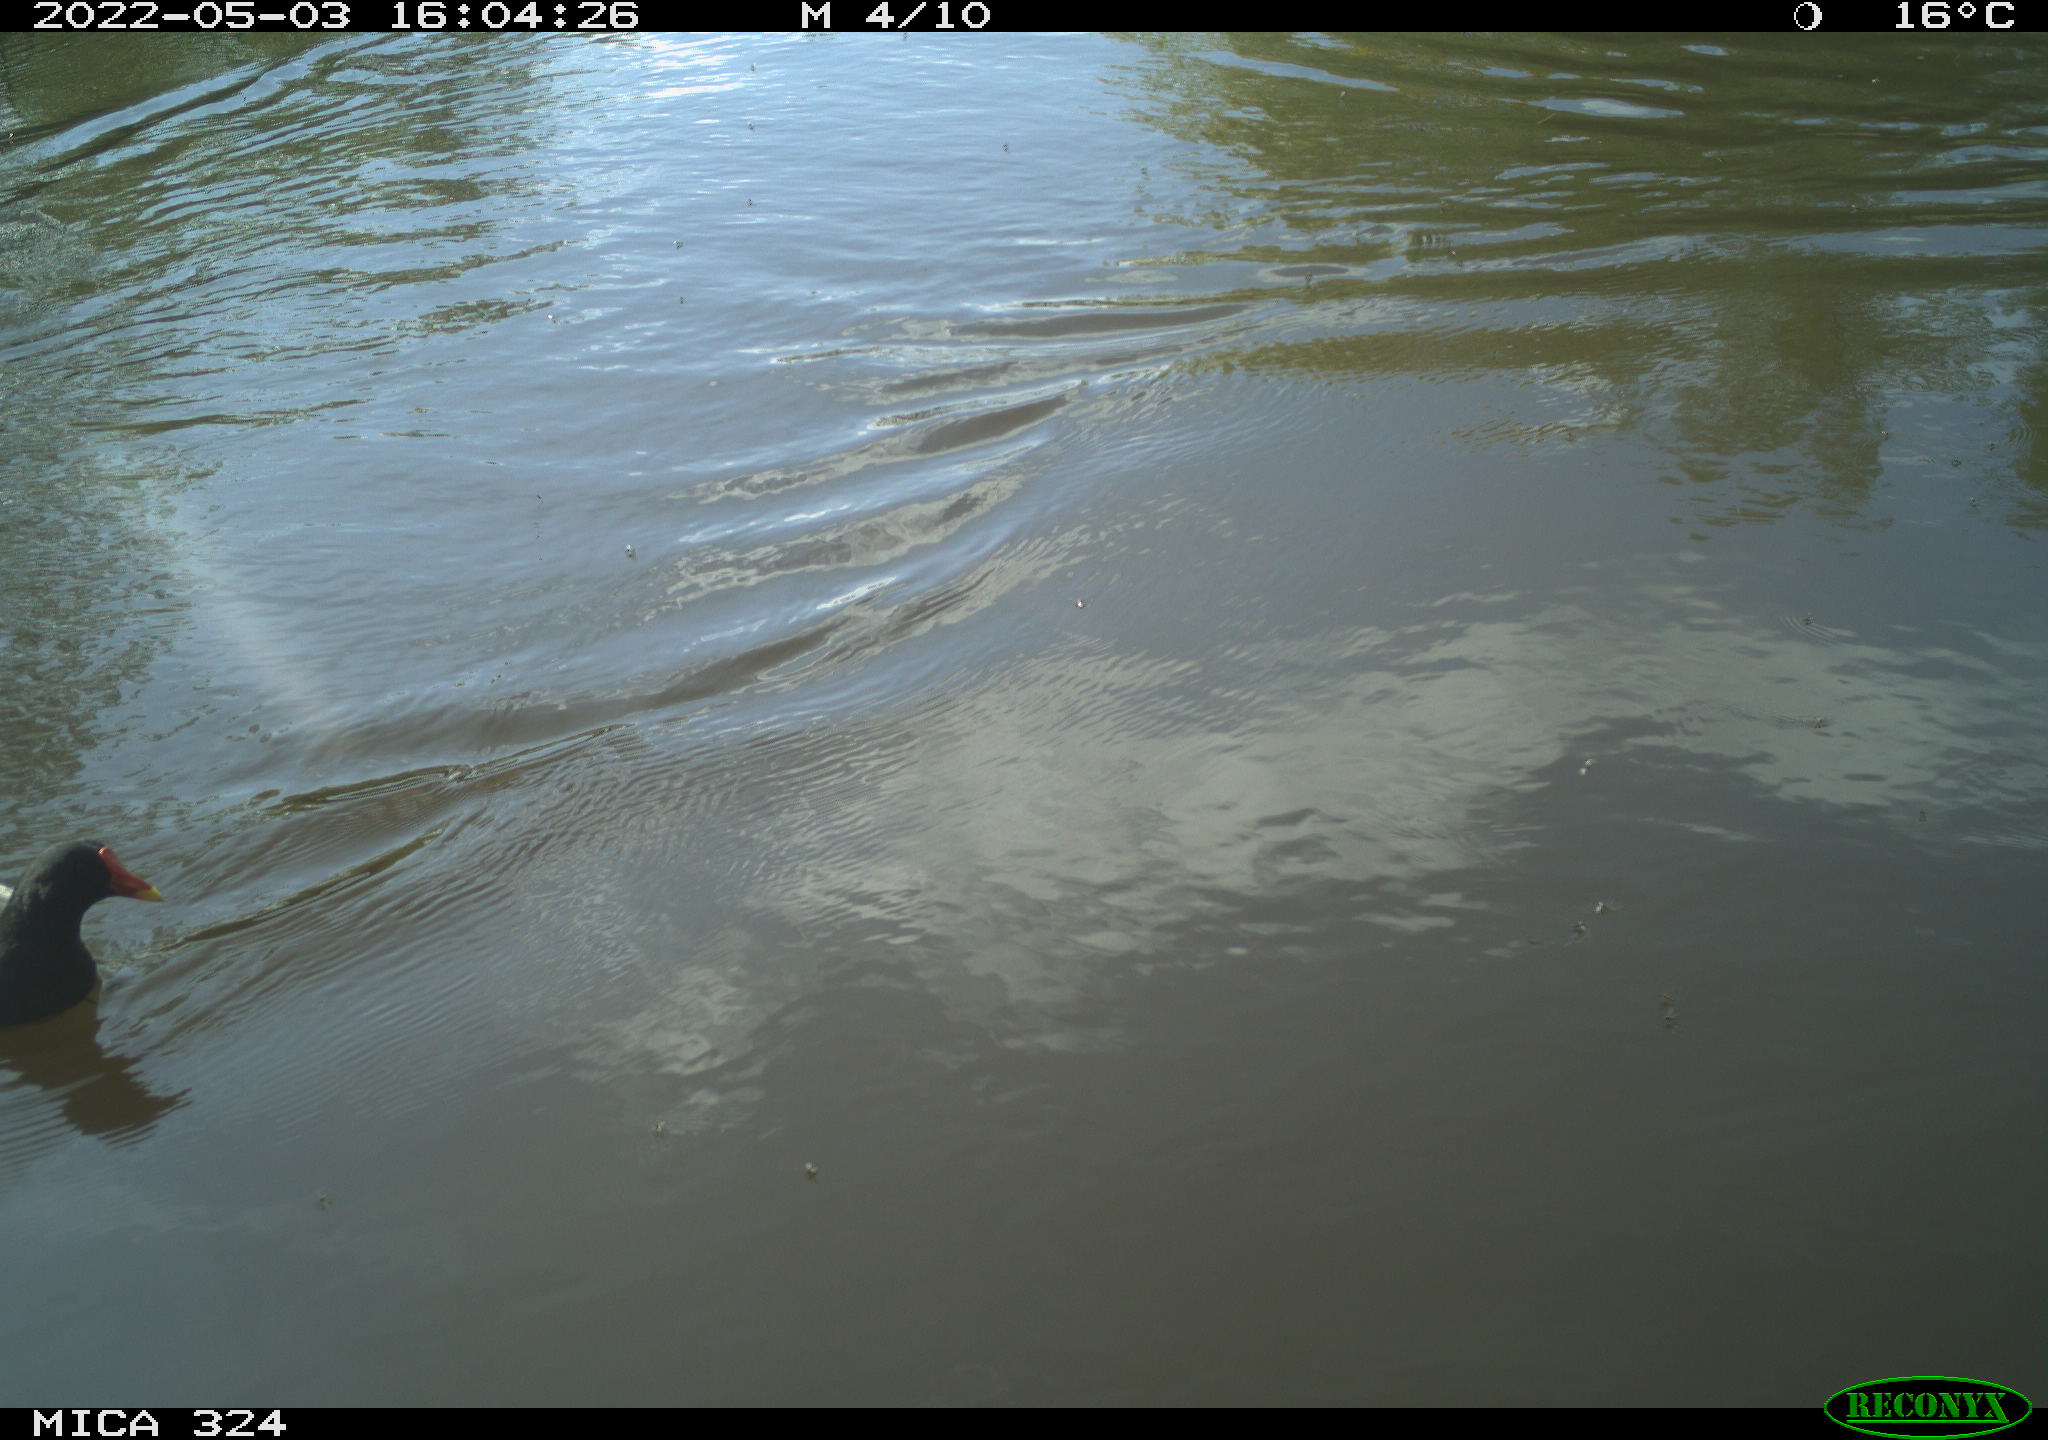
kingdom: Animalia
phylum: Chordata
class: Aves
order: Gruiformes
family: Rallidae
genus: Gallinula
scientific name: Gallinula chloropus
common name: Common moorhen
